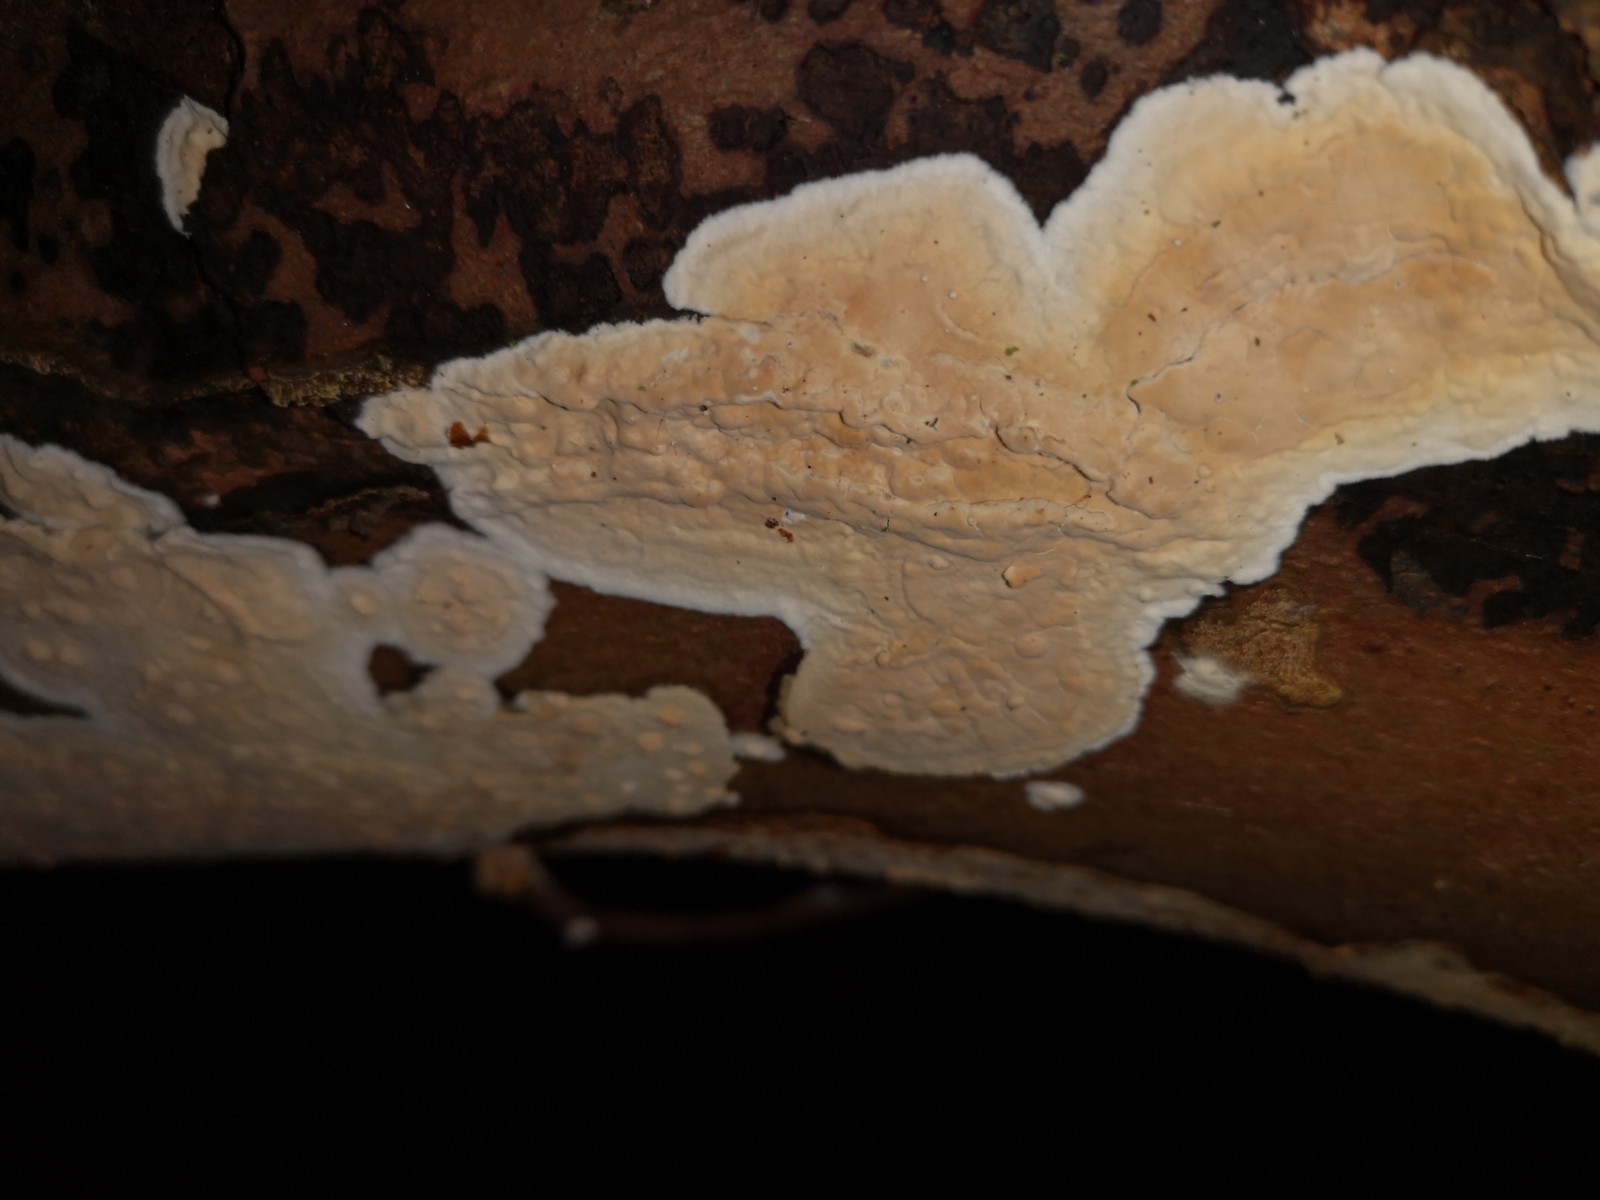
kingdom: Fungi
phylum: Basidiomycota
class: Agaricomycetes
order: Russulales
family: Stereaceae
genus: Stereum
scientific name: Stereum rugosum
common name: rynket lædersvamp
